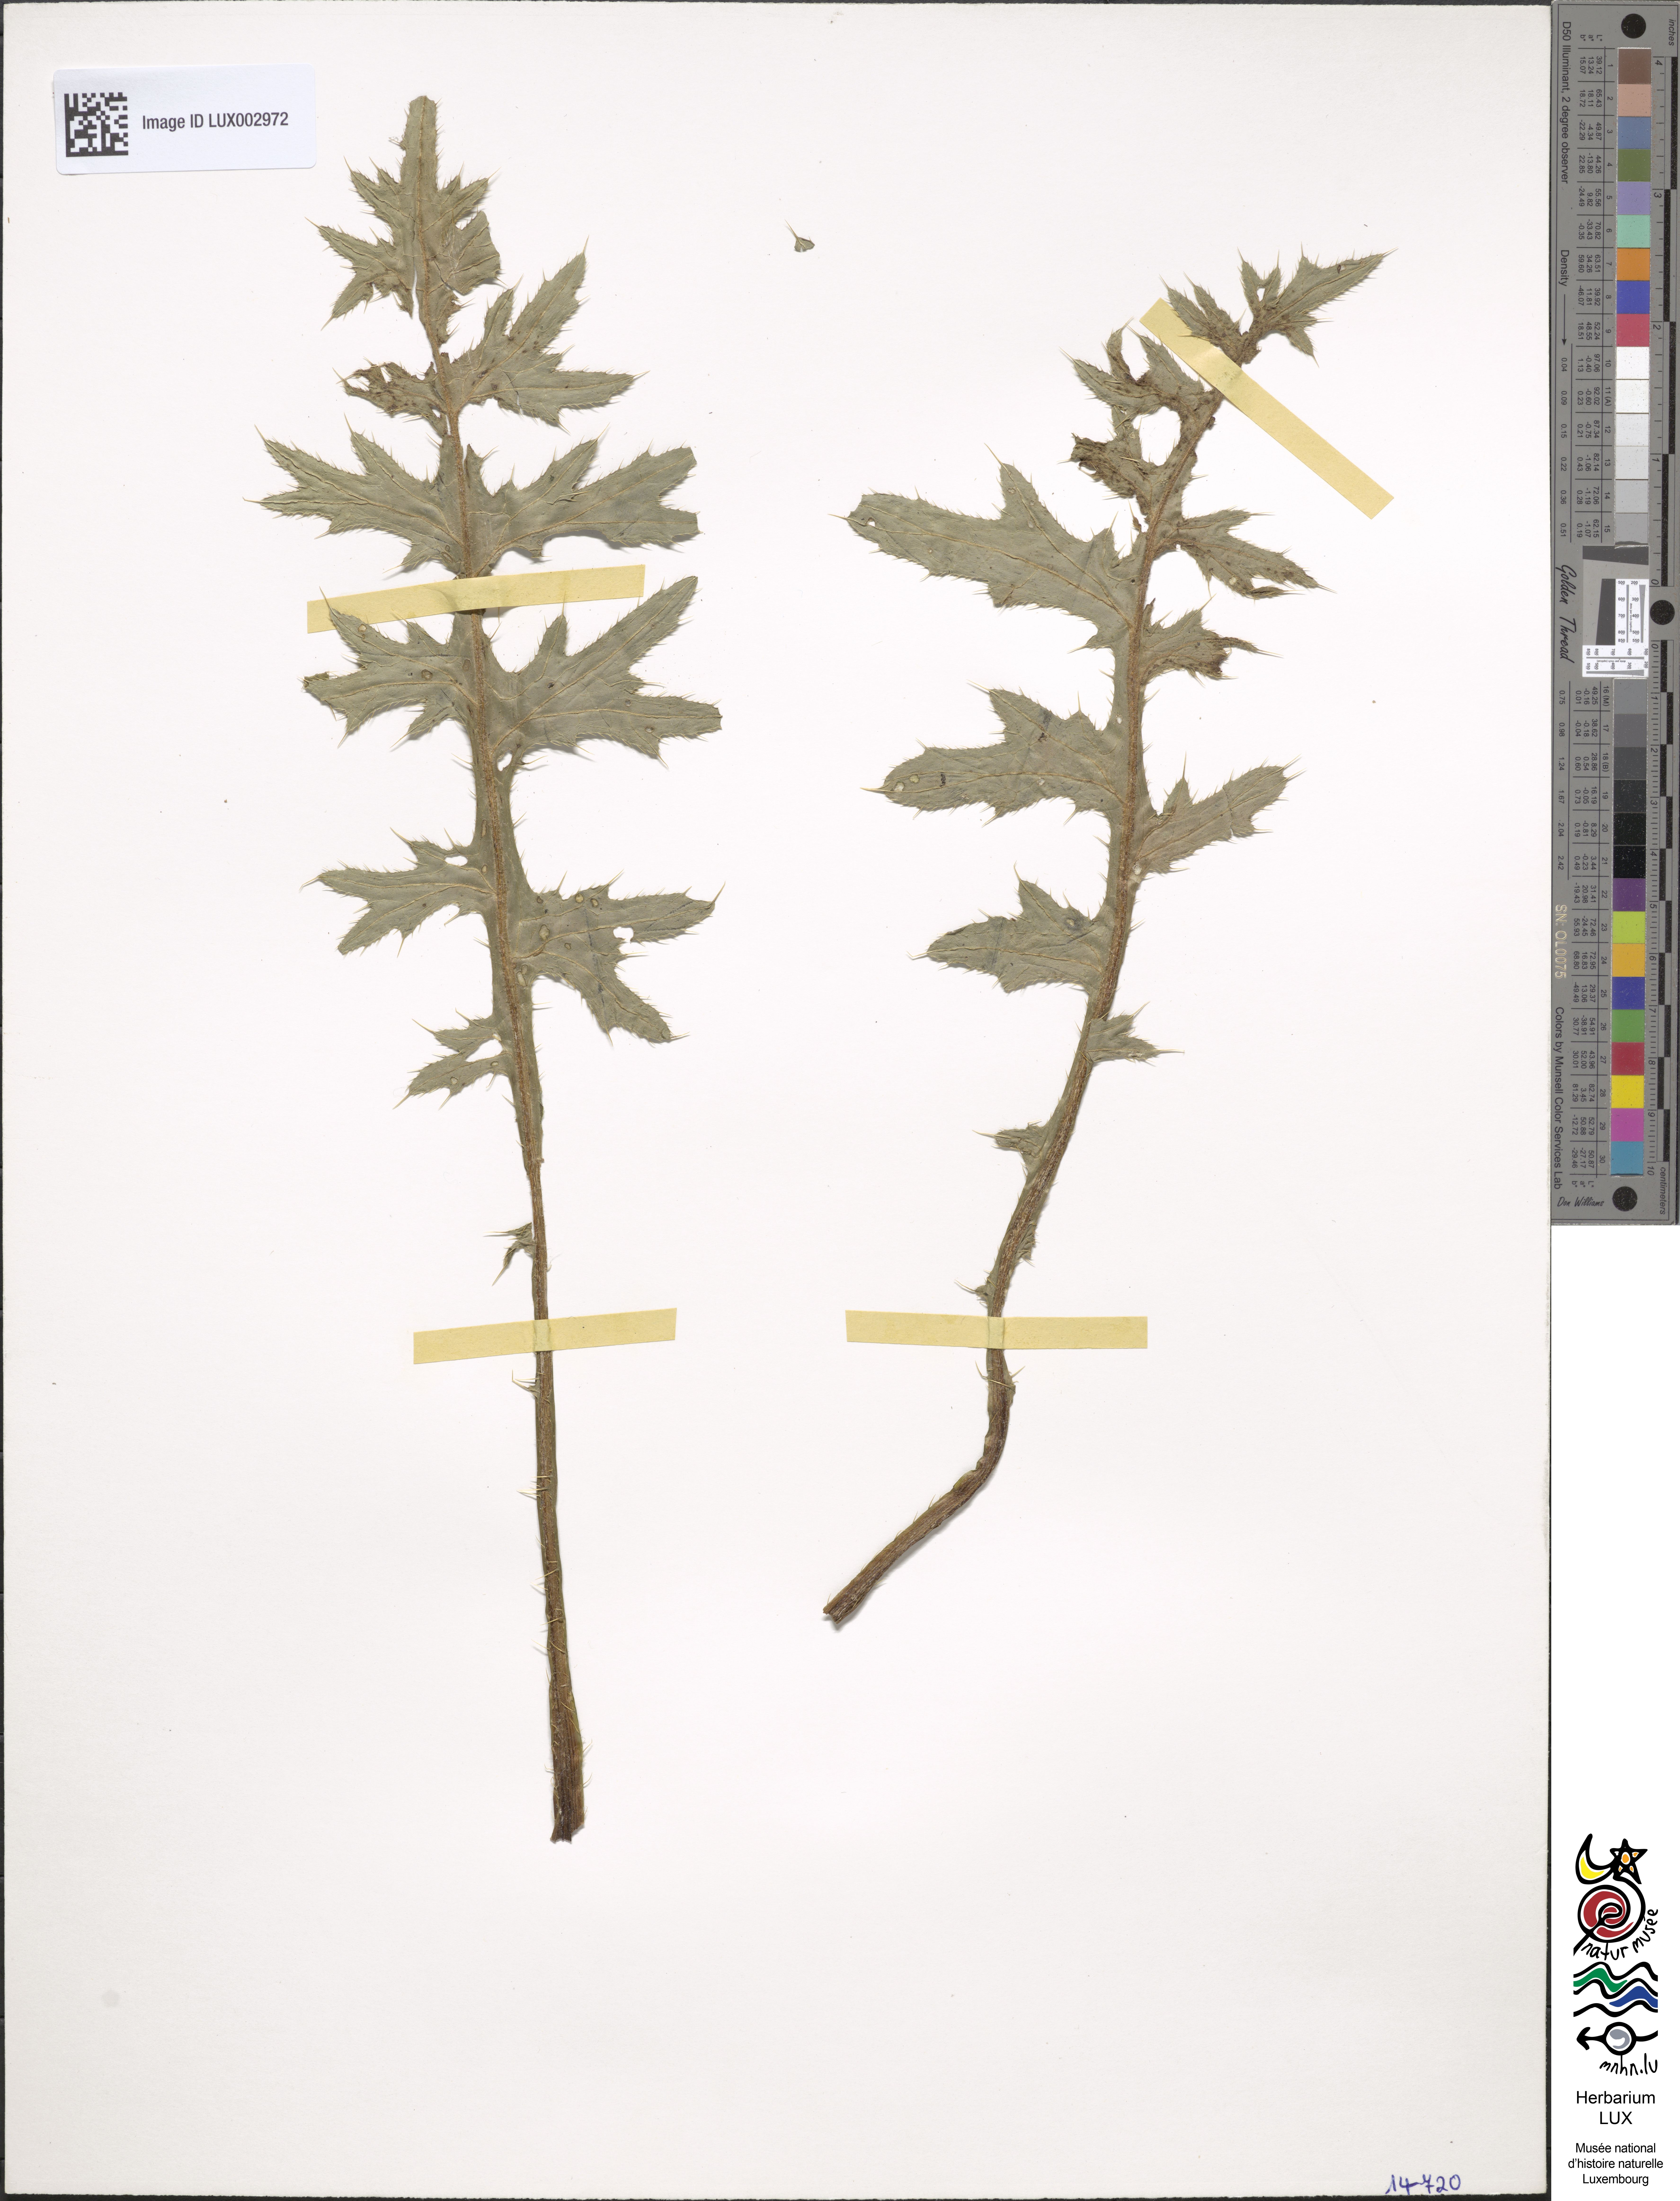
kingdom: Plantae
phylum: Tracheophyta
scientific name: Tracheophyta
